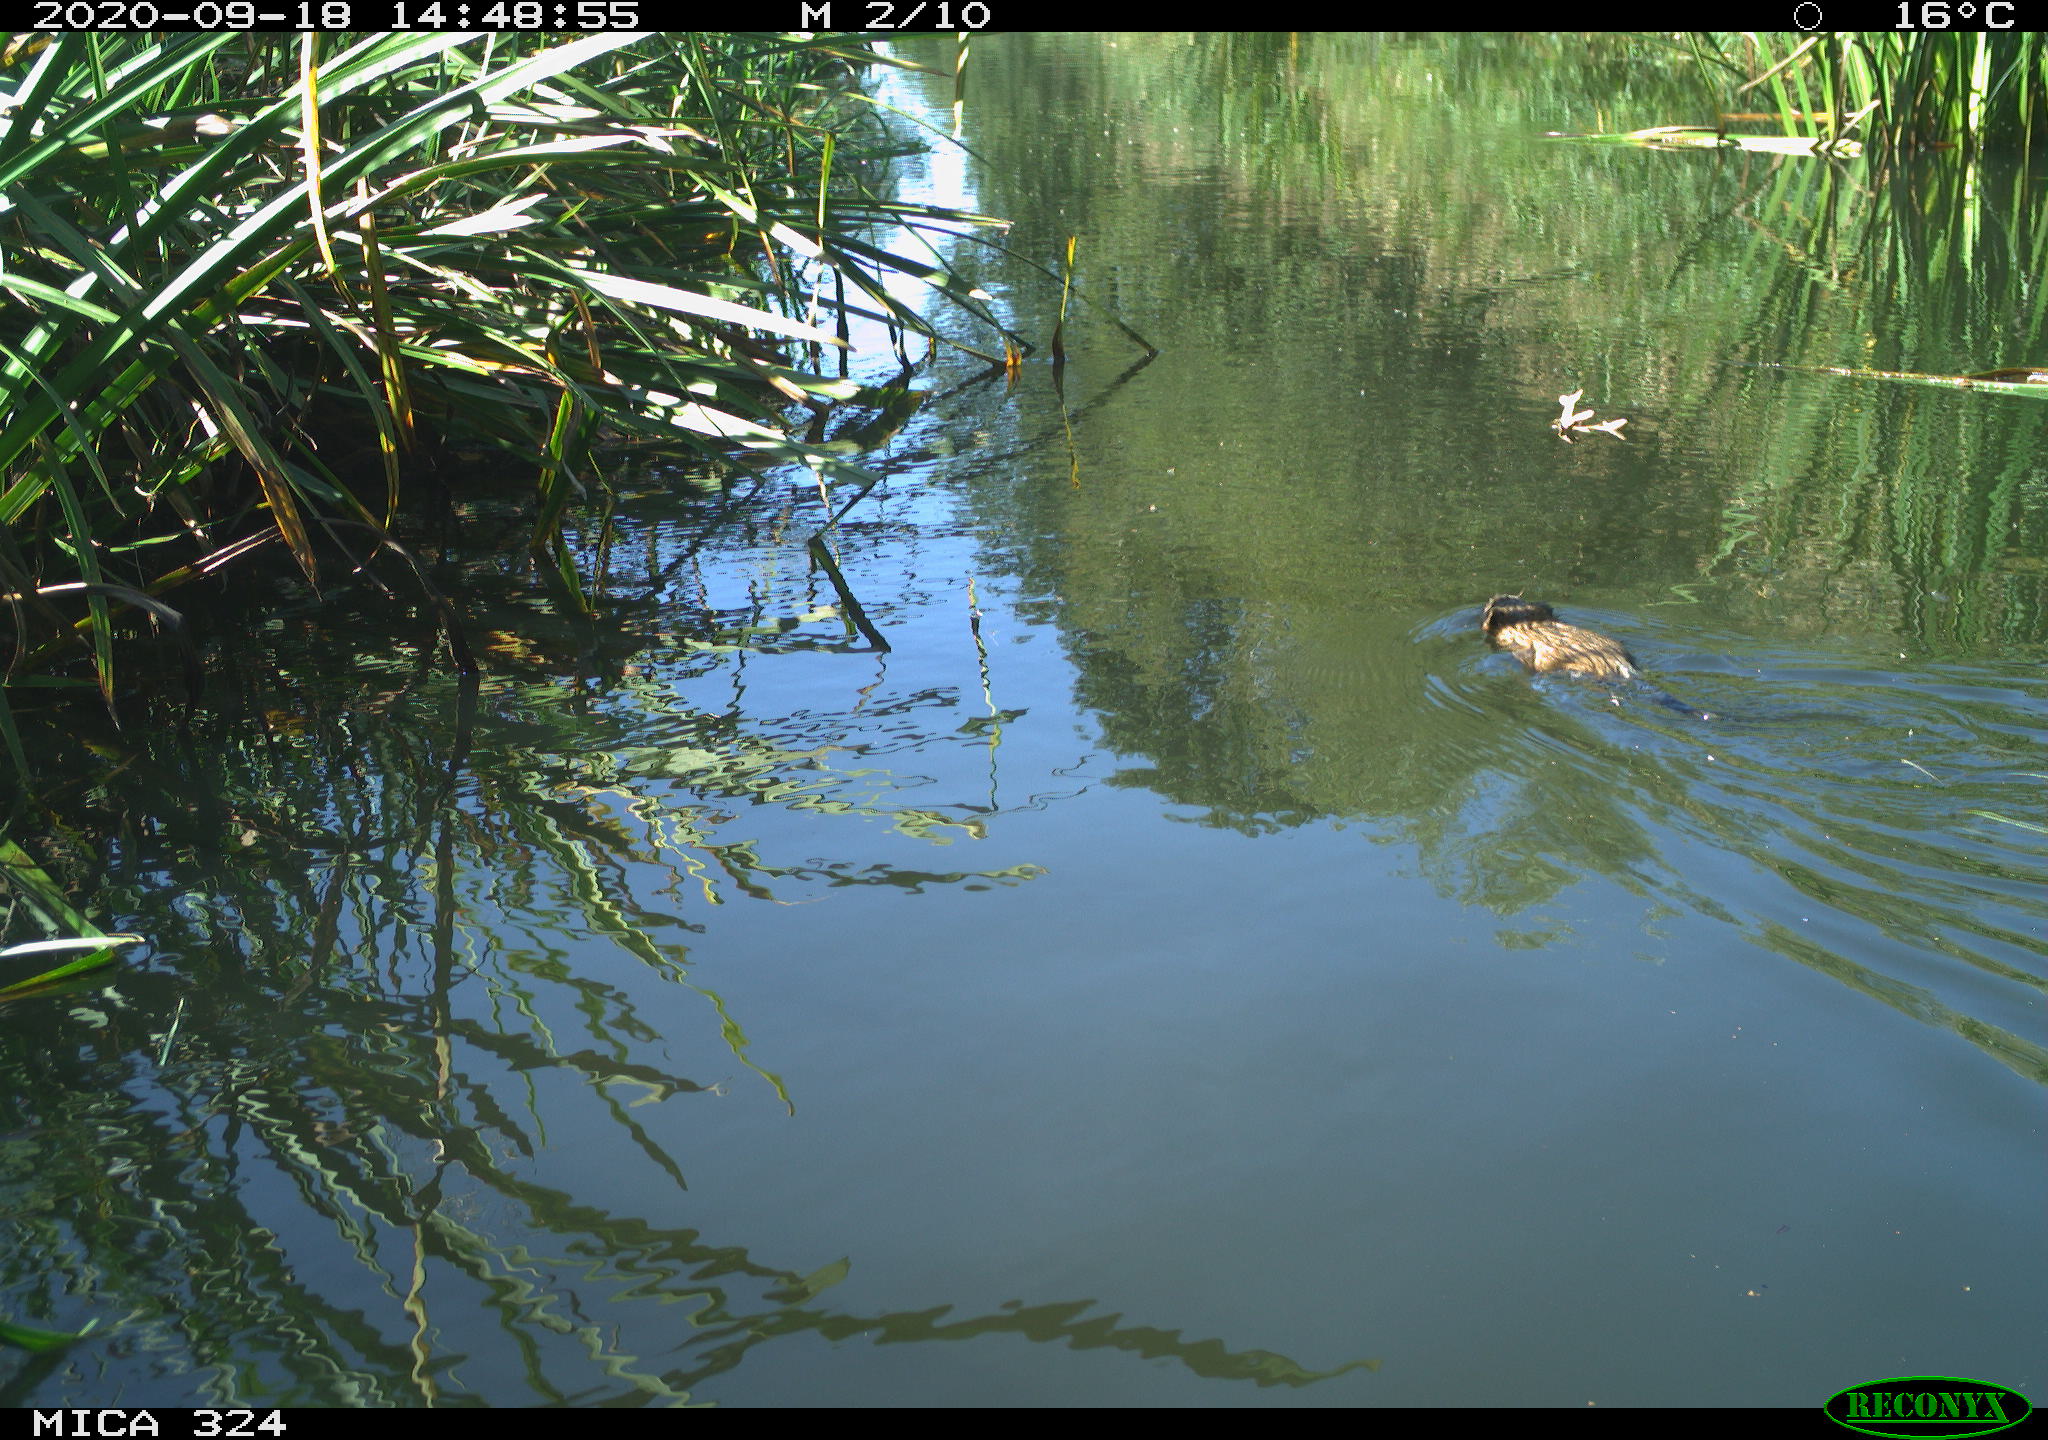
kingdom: Animalia
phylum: Chordata
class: Mammalia
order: Rodentia
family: Cricetidae
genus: Ondatra
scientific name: Ondatra zibethicus
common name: Muskrat
